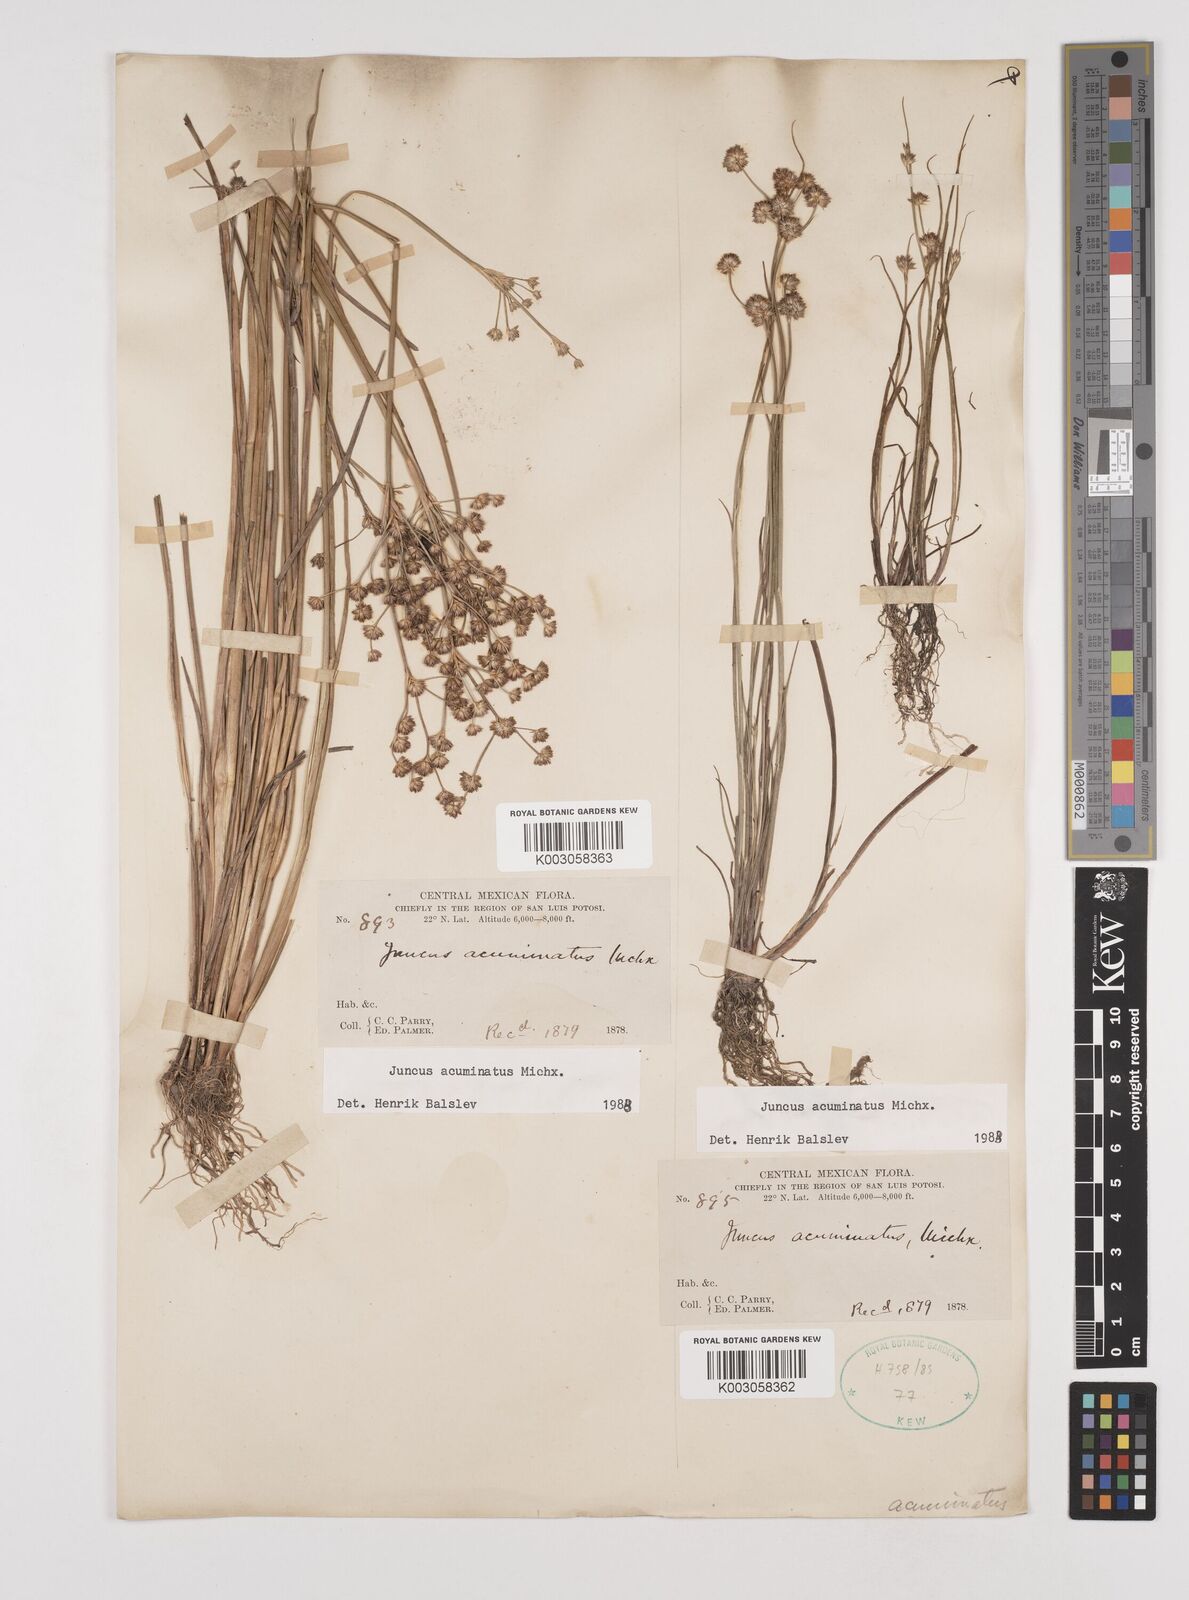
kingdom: Plantae
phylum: Tracheophyta
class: Liliopsida
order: Poales
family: Juncaceae
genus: Juncus
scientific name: Juncus acuminatus
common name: Knotty-leaved rush
